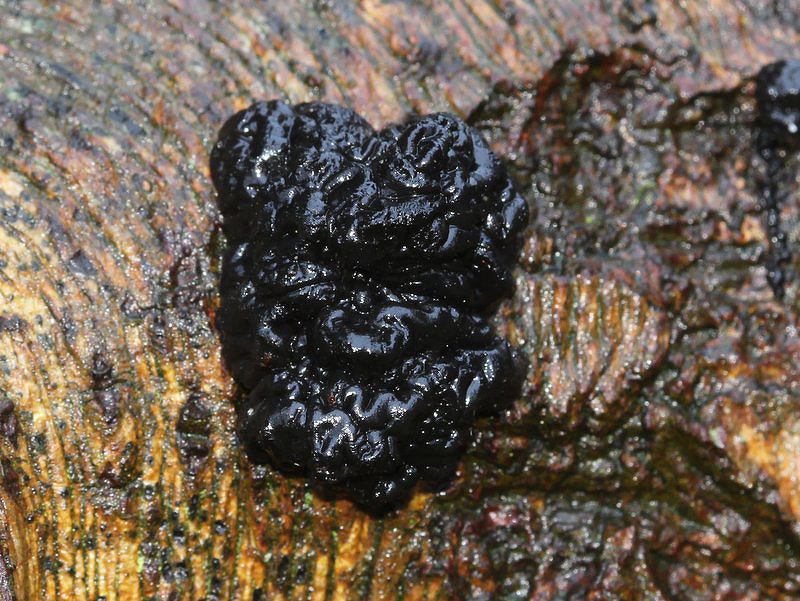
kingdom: Fungi
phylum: Basidiomycota
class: Agaricomycetes
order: Auriculariales
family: Auriculariaceae
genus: Exidia
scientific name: Exidia nigricans
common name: almindelig bævretop
